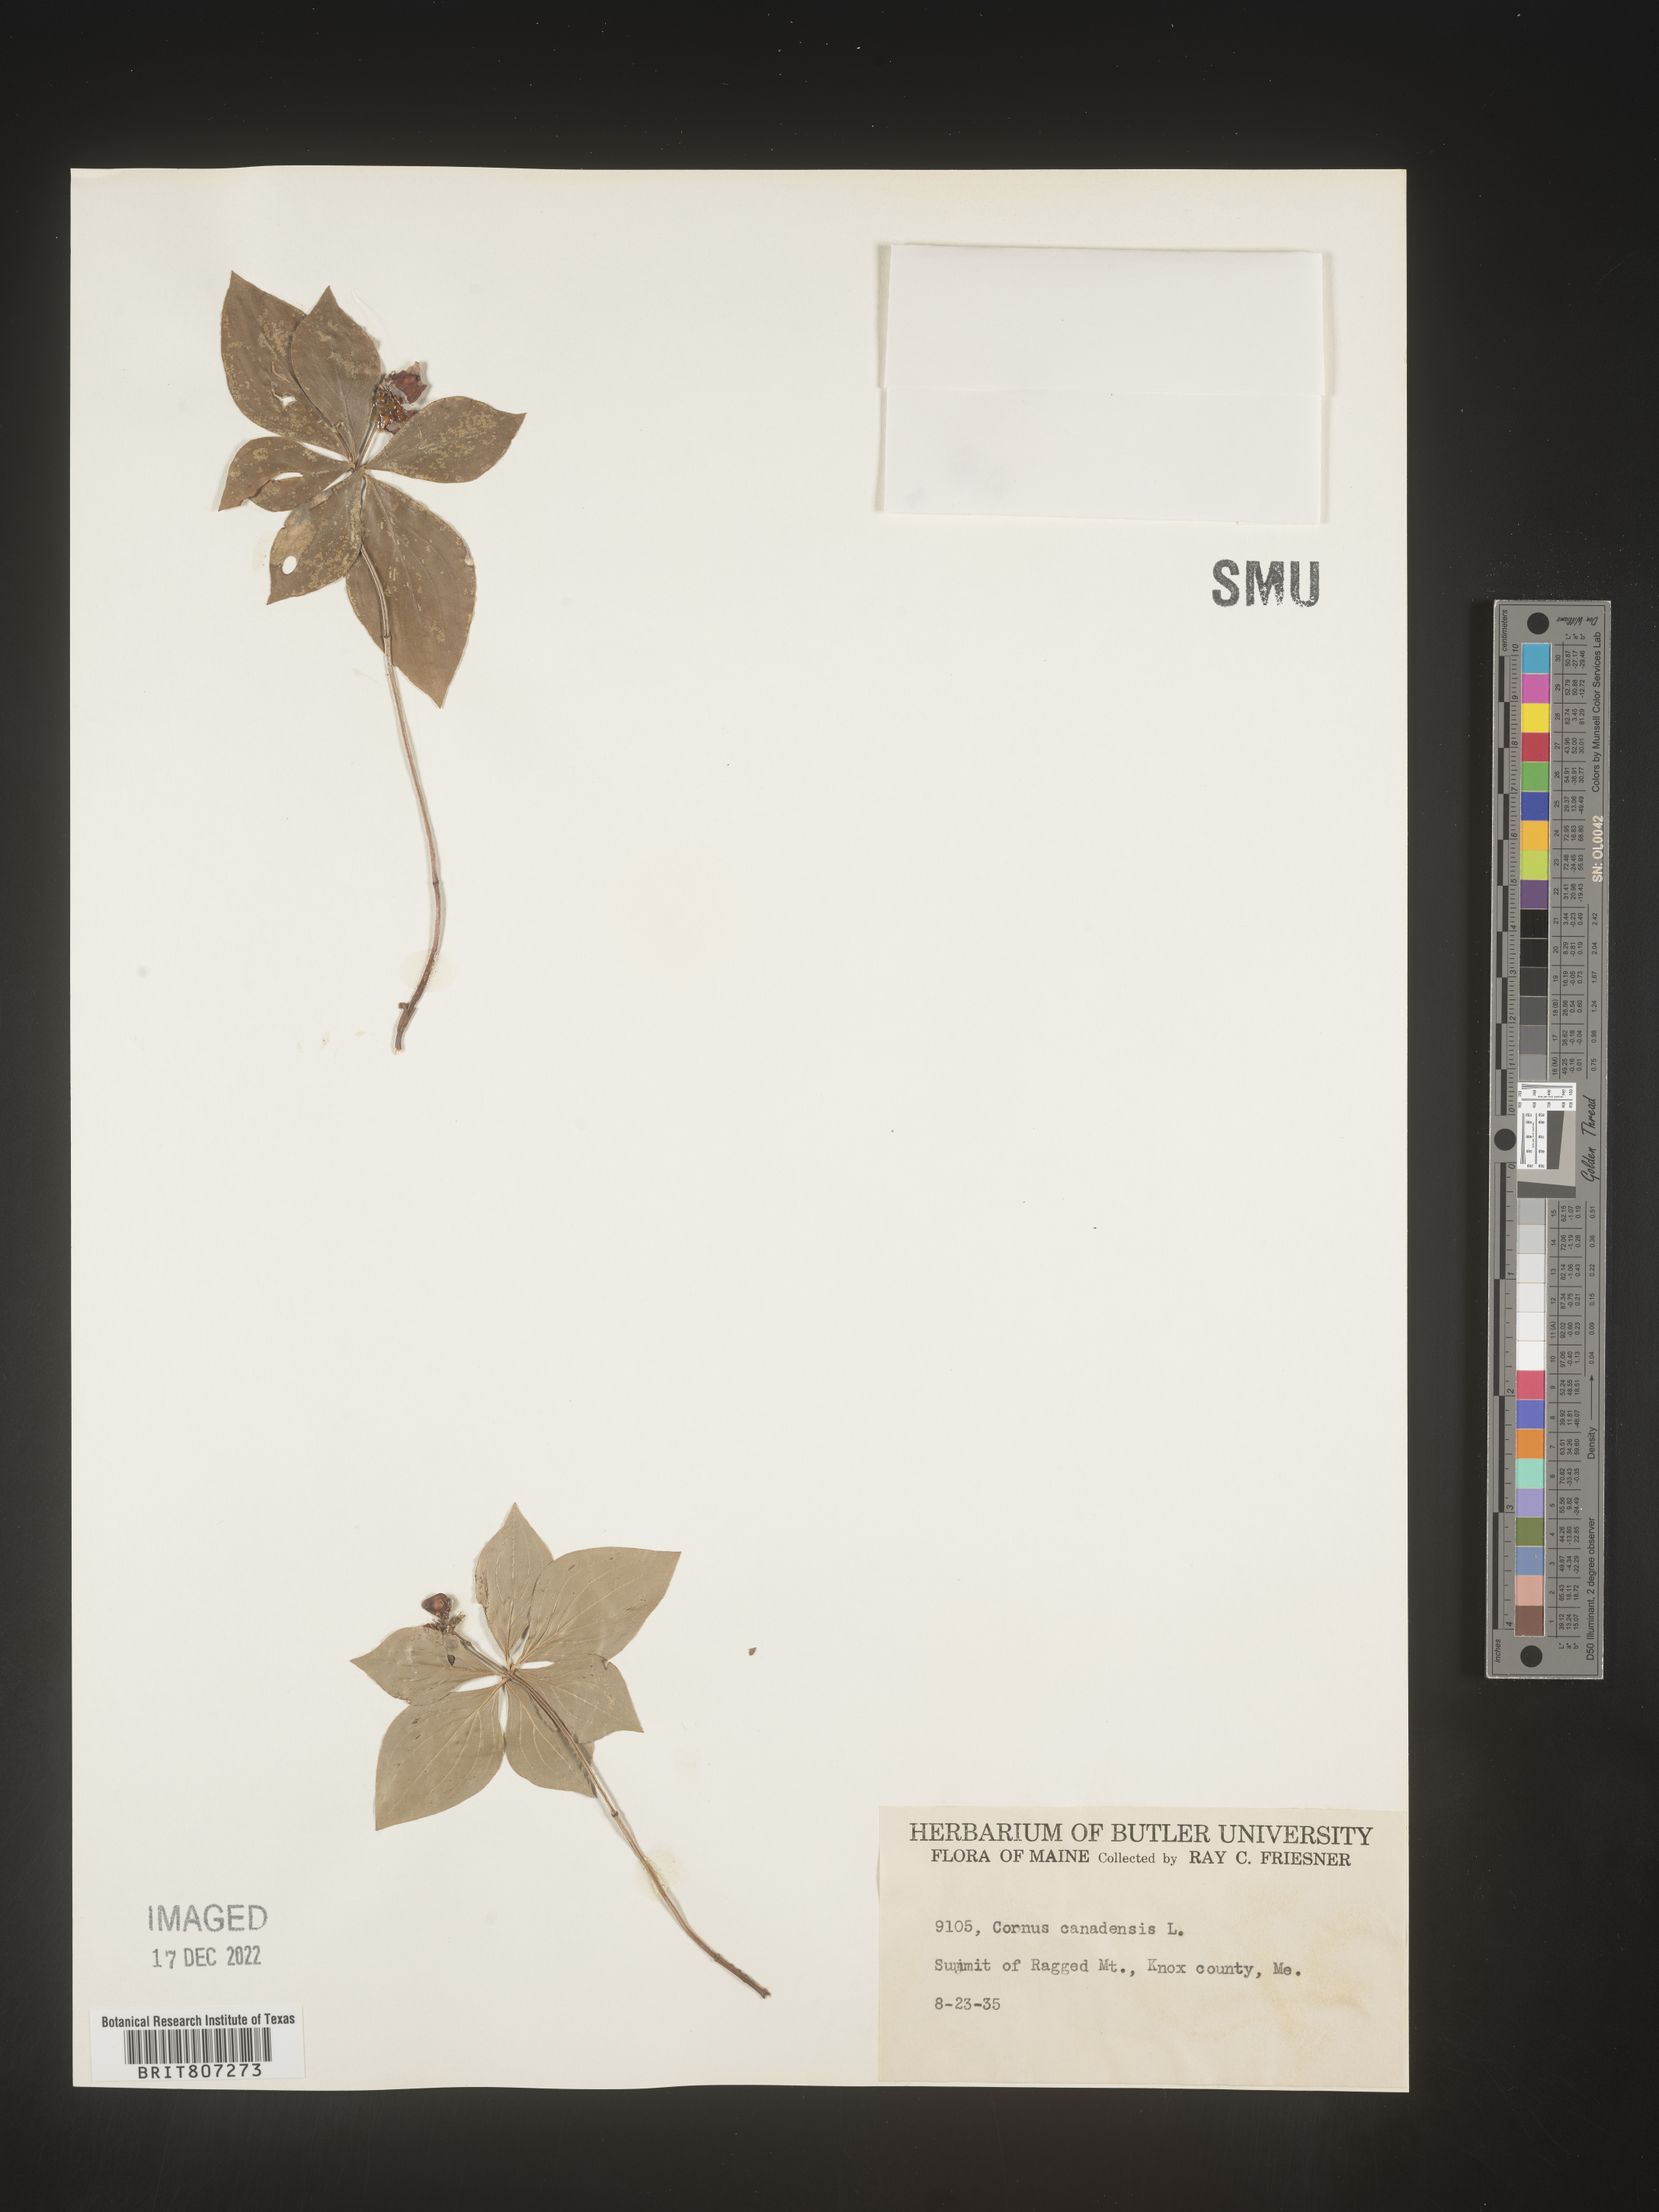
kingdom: Plantae
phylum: Tracheophyta
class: Magnoliopsida
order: Cornales
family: Cornaceae
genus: Cornus
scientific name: Cornus canadensis
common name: Creeping dogwood
